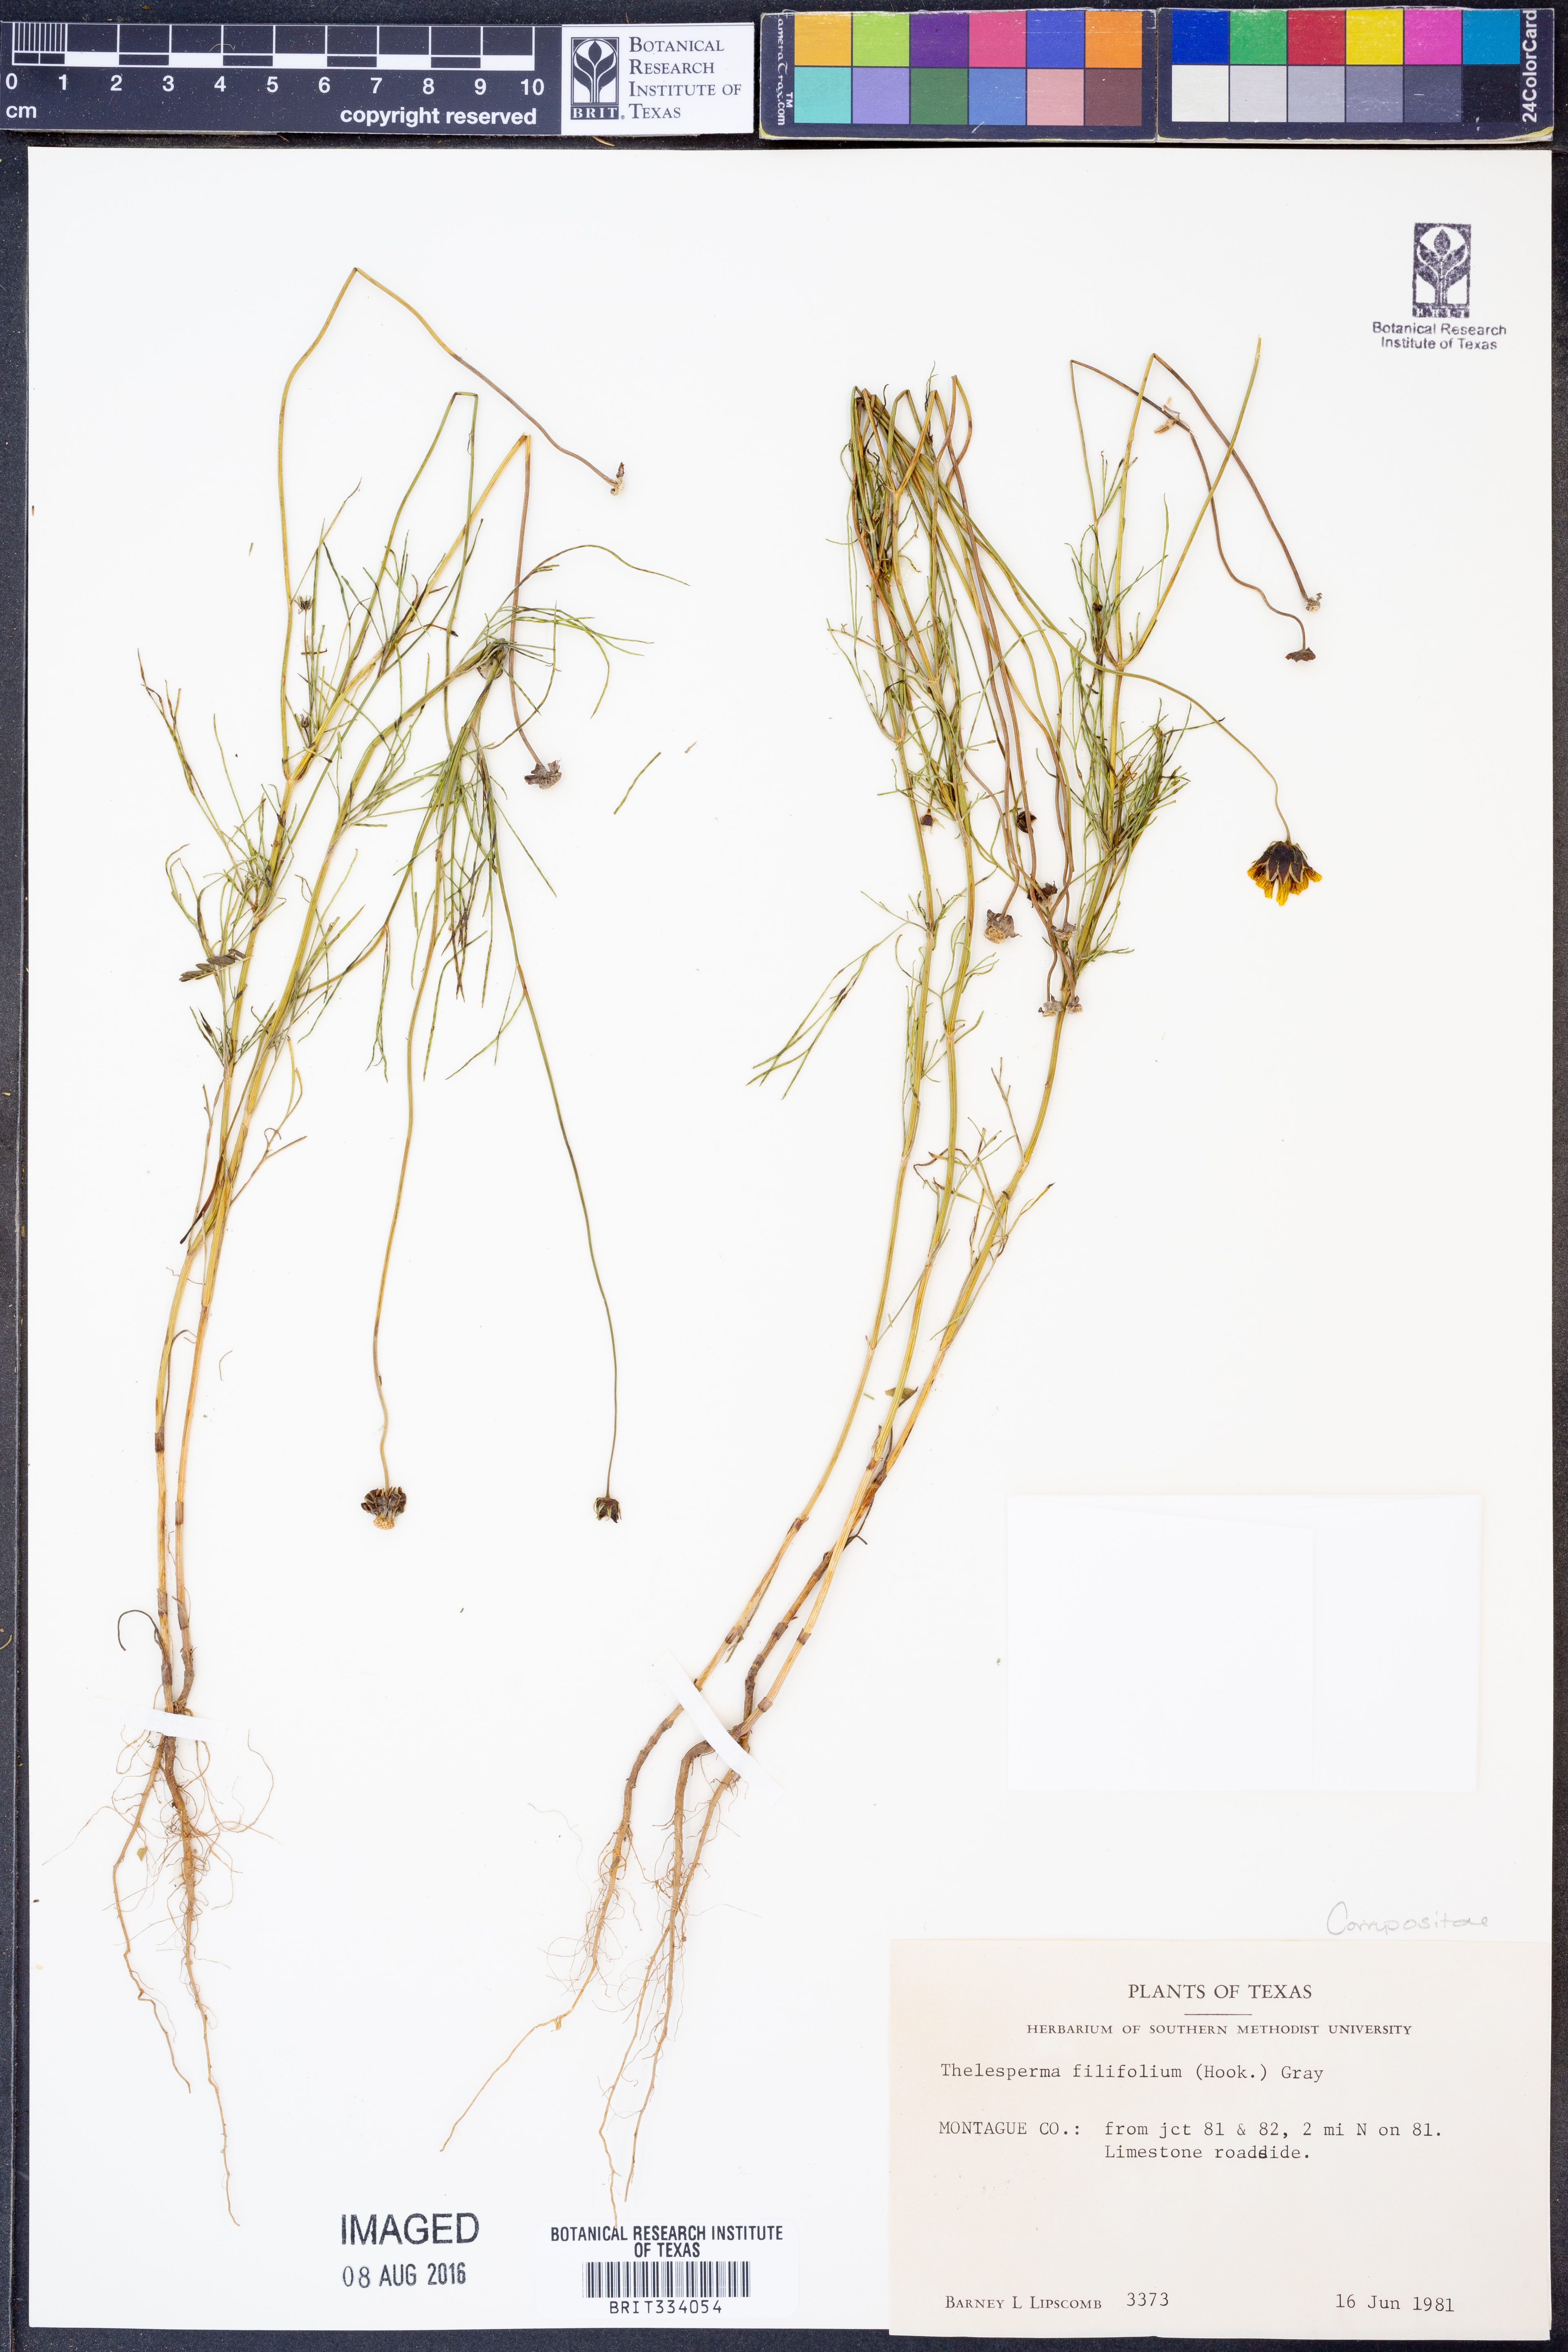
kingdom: Plantae
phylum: Tracheophyta
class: Magnoliopsida
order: Asterales
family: Asteraceae
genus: Thelesperma
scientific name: Thelesperma filifolium
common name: Stiff greenthread
